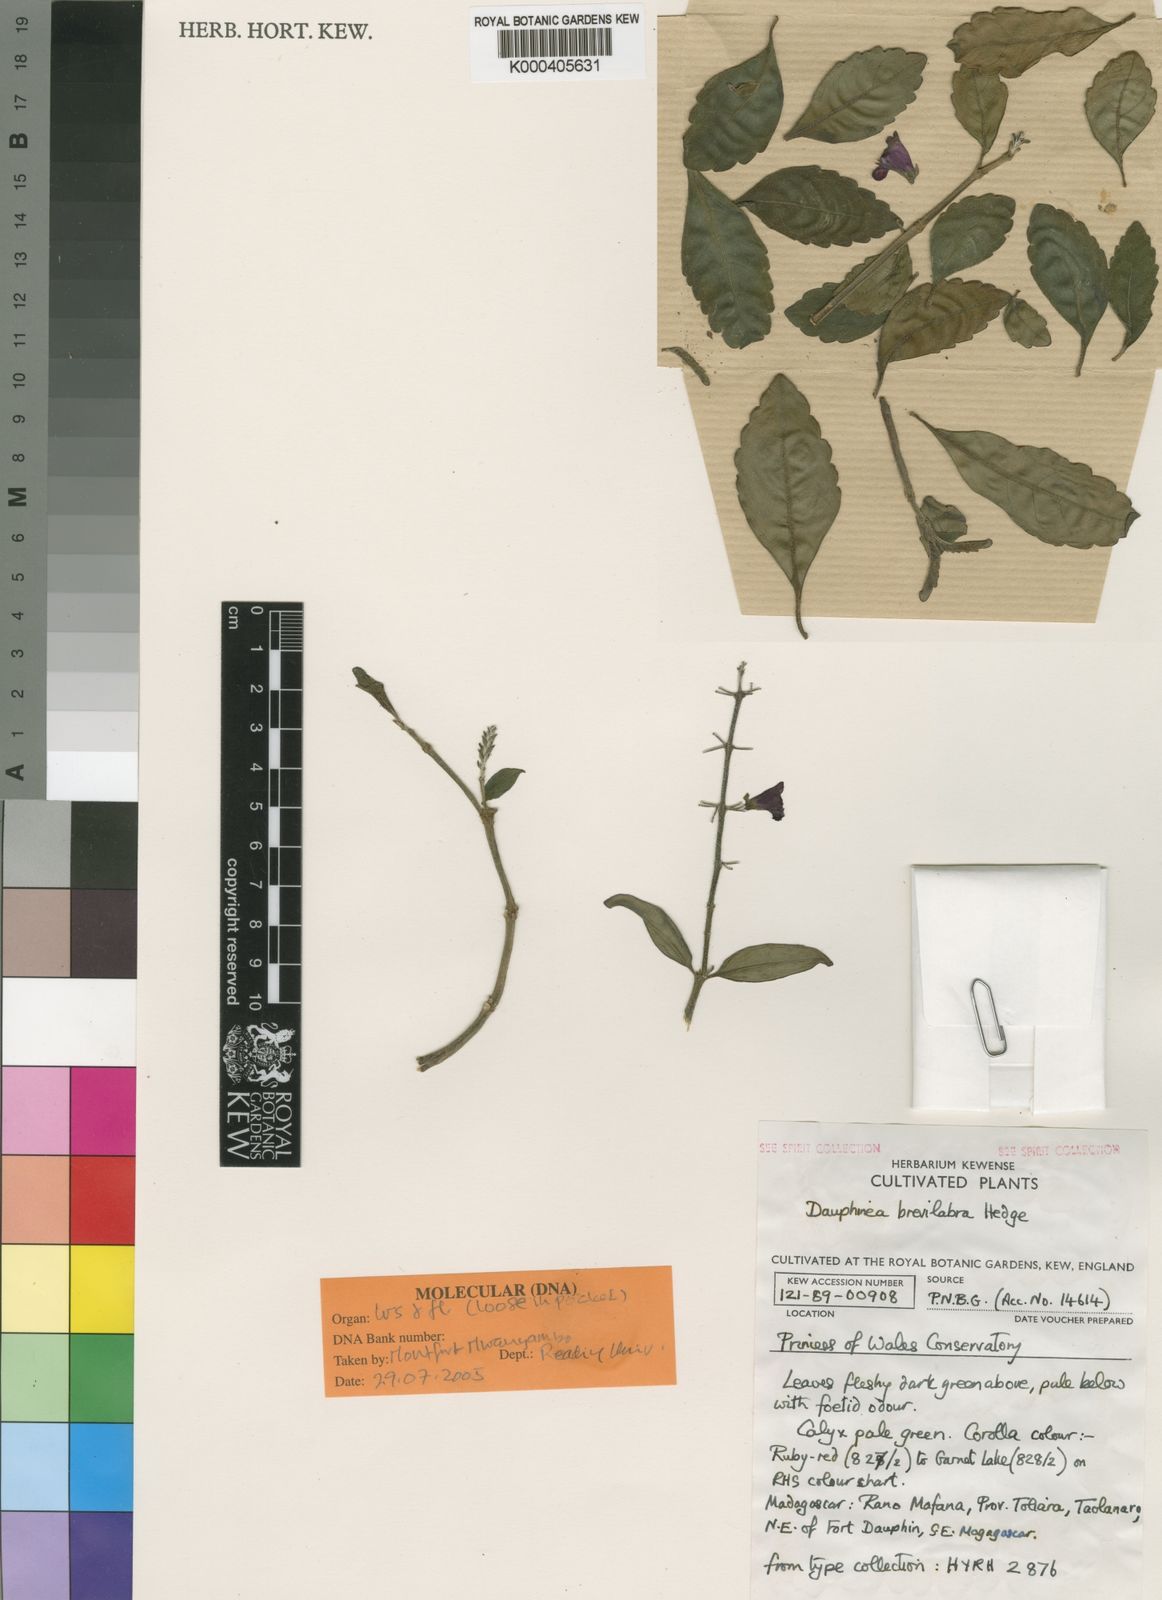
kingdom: Plantae
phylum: Tracheophyta
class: Magnoliopsida
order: Lamiales
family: Lamiaceae
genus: Capitanopsis
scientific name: Capitanopsis brevilabra
